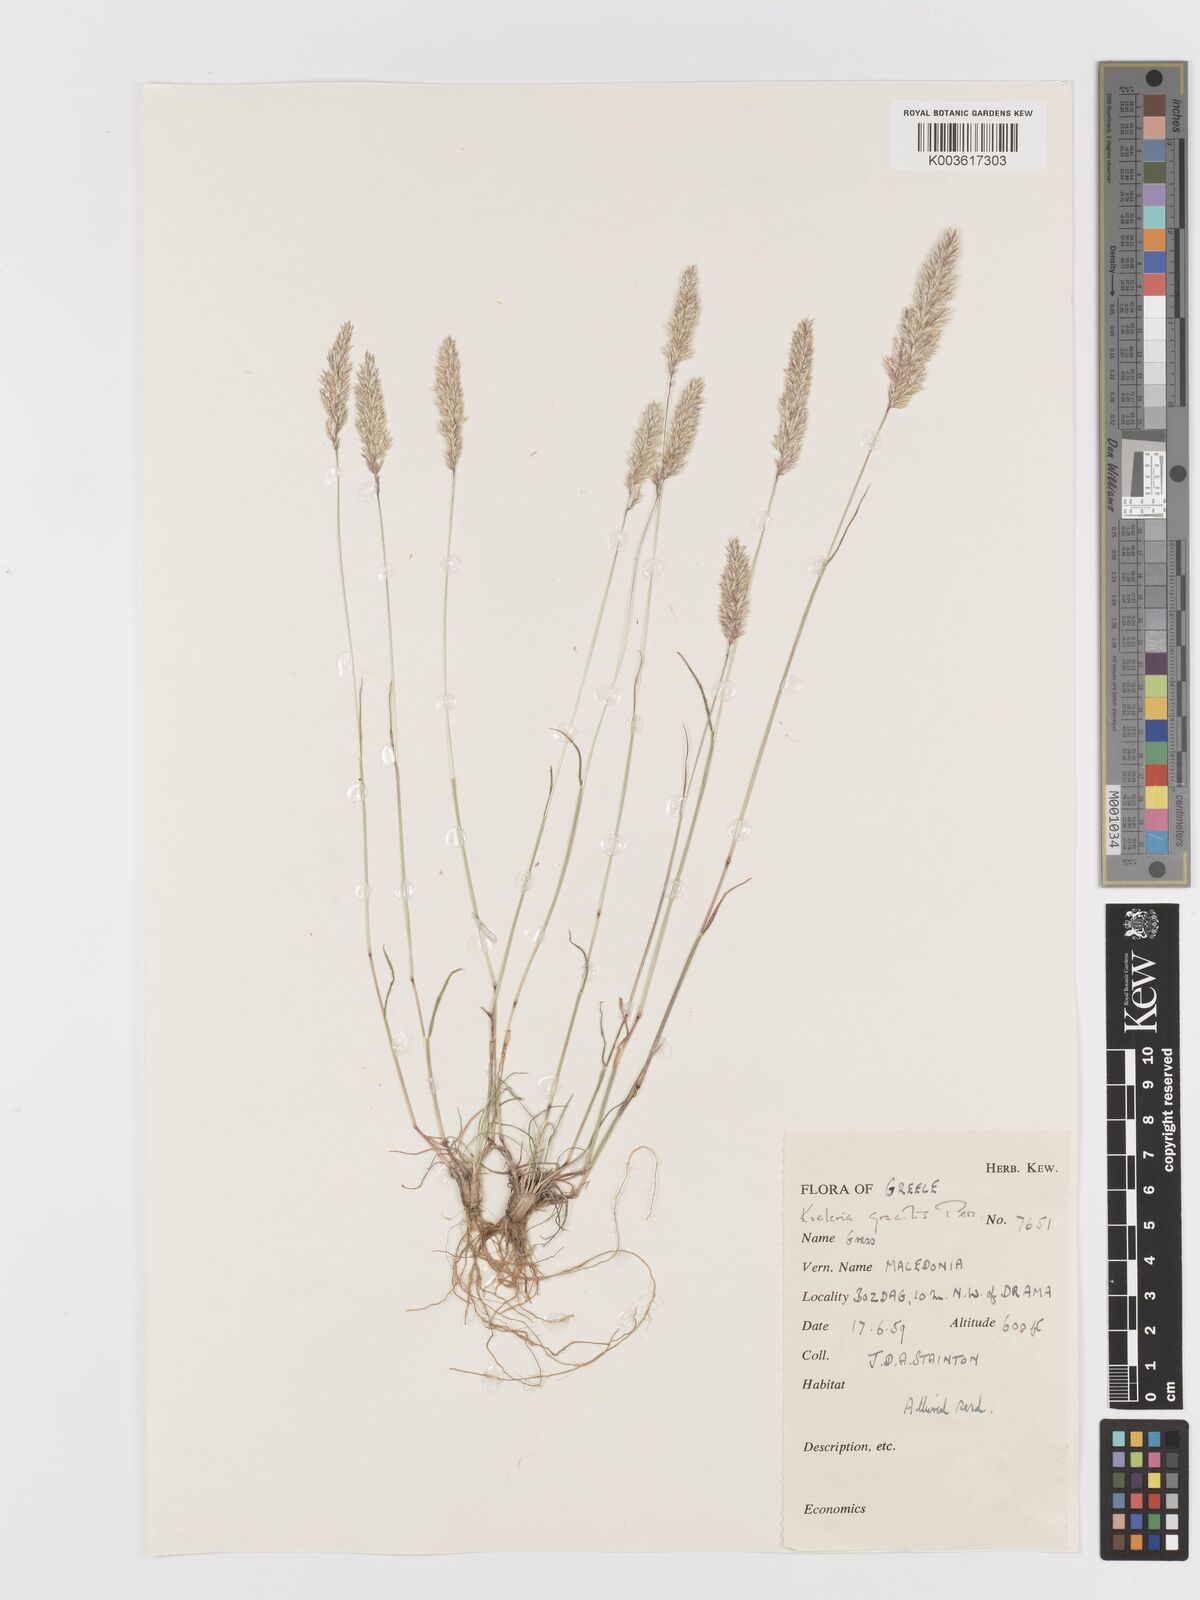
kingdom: Plantae
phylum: Tracheophyta
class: Liliopsida
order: Poales
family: Poaceae
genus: Koeleria
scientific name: Koeleria macrantha
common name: Crested hair-grass
